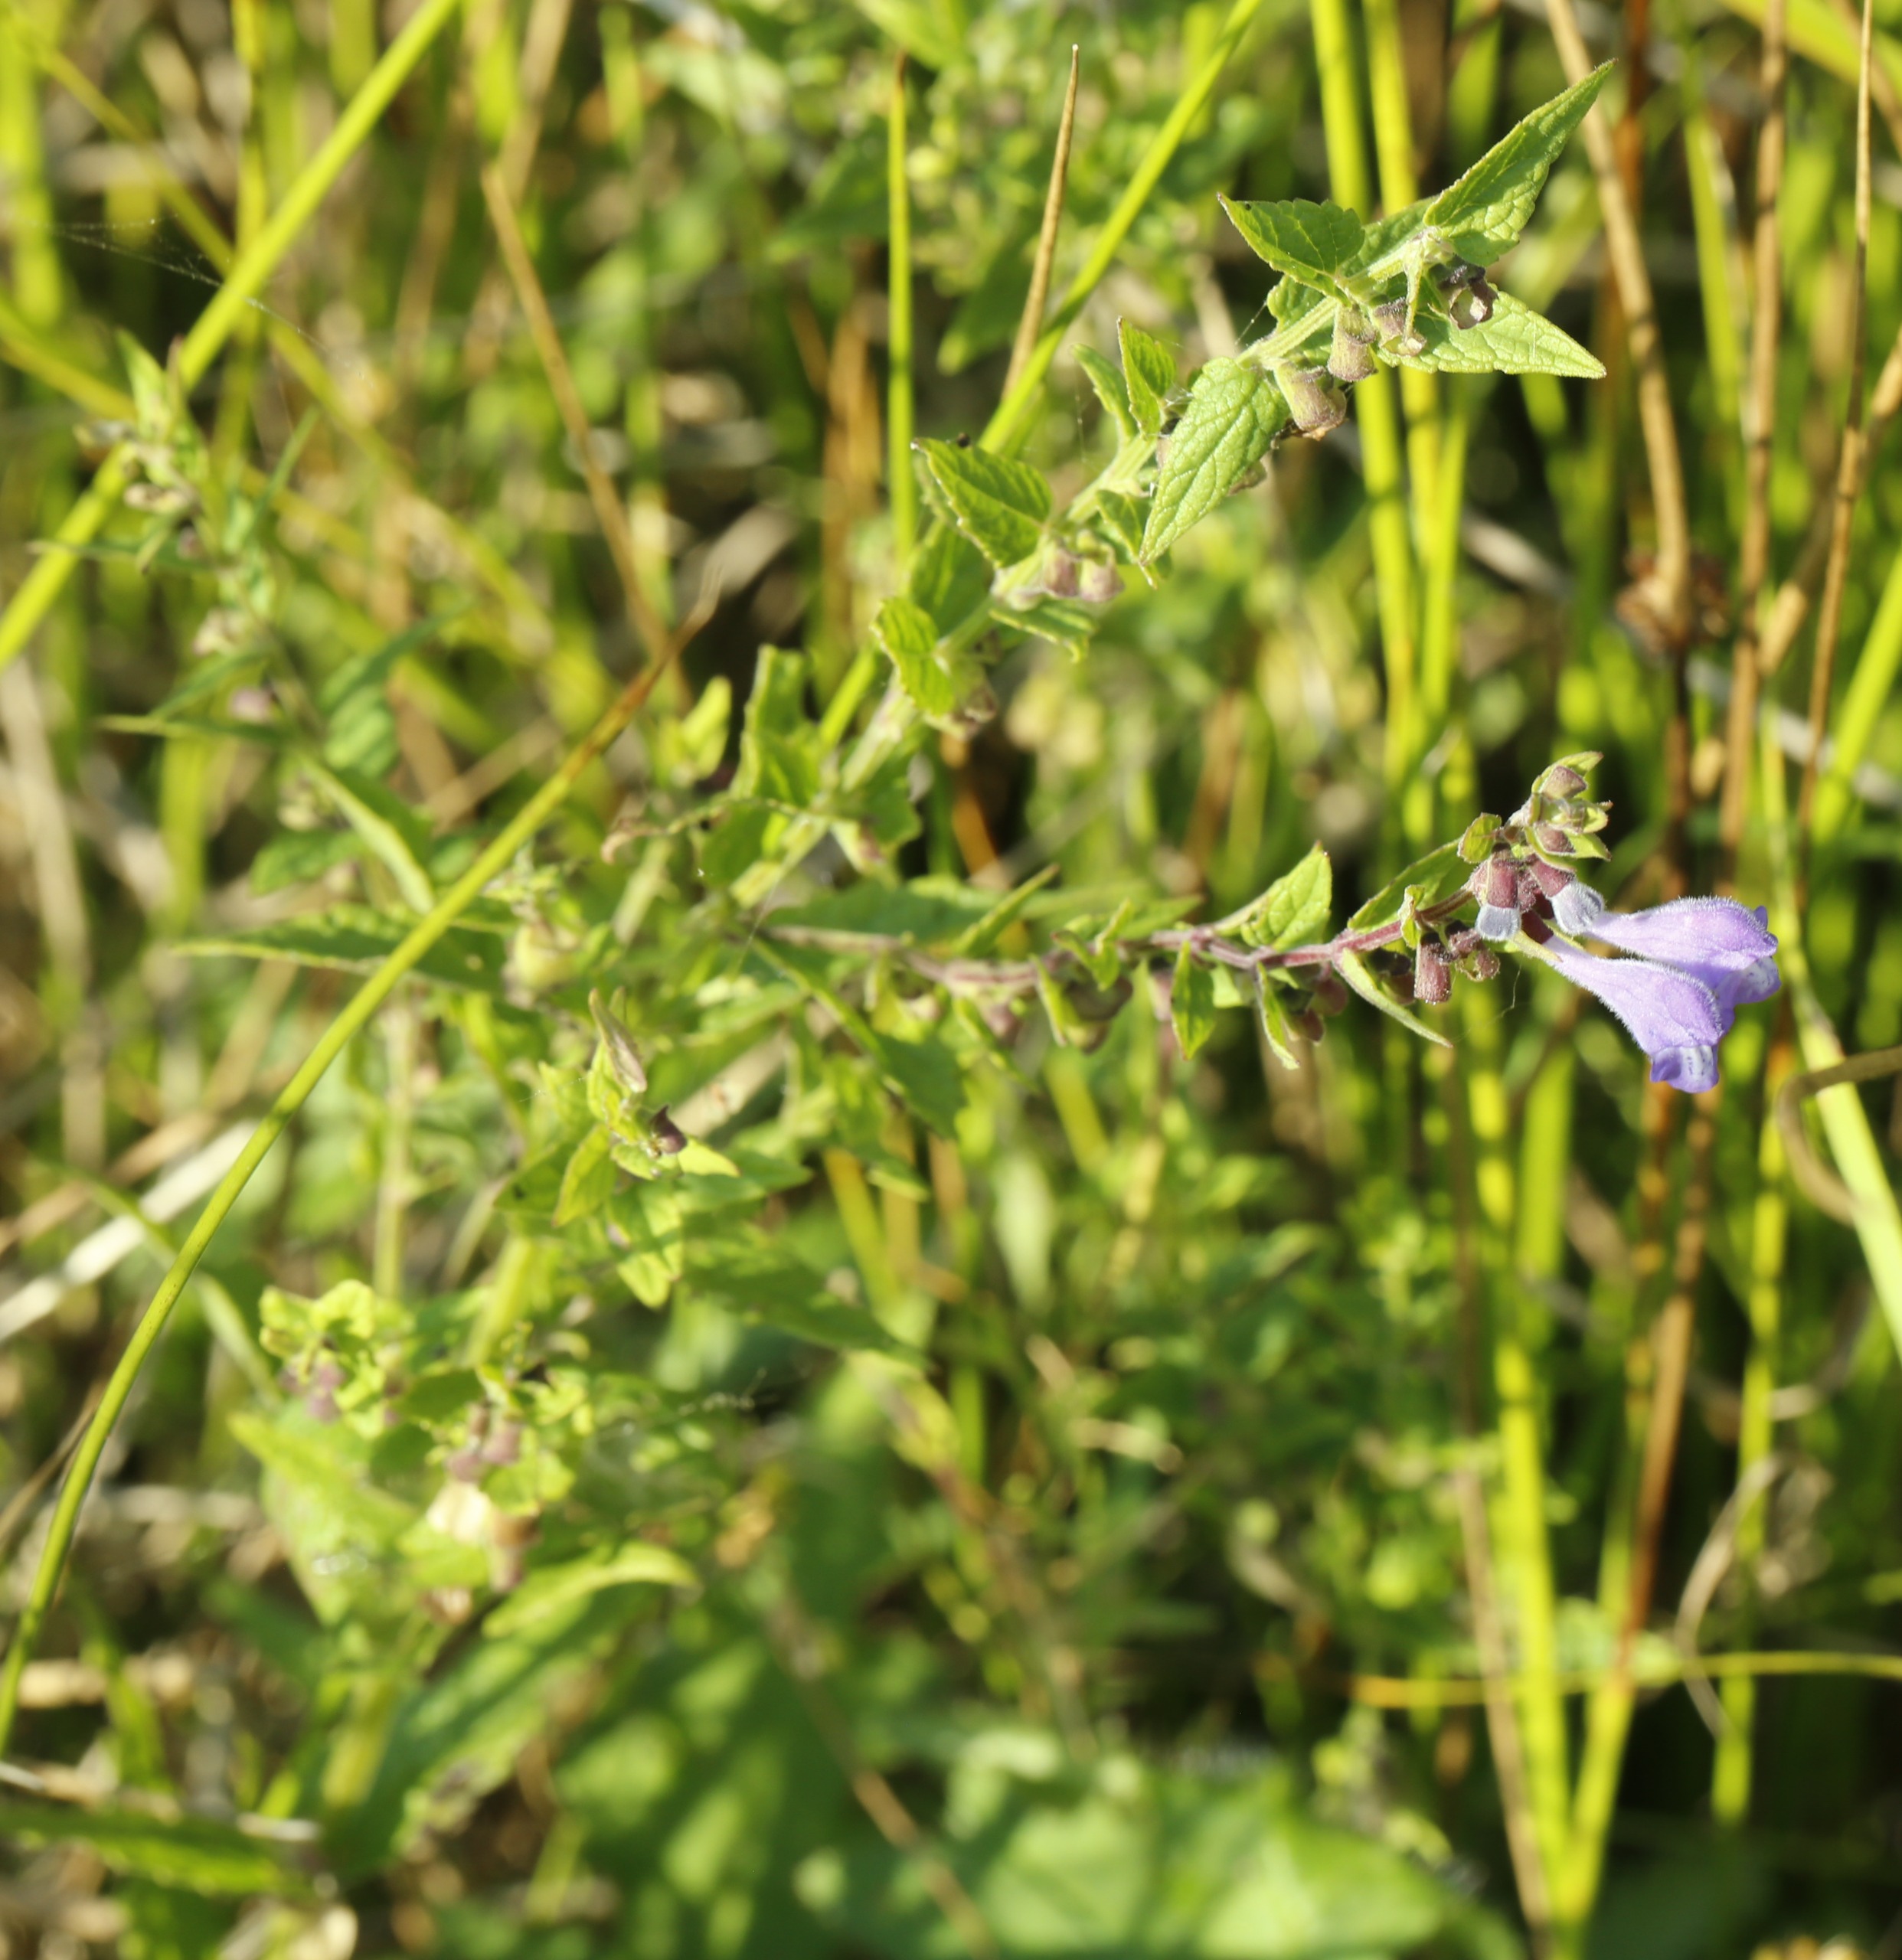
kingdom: Plantae
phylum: Tracheophyta
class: Magnoliopsida
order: Lamiales
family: Lamiaceae
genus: Scutellaria
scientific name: Scutellaria galericulata
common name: Almindelig skjolddrager
